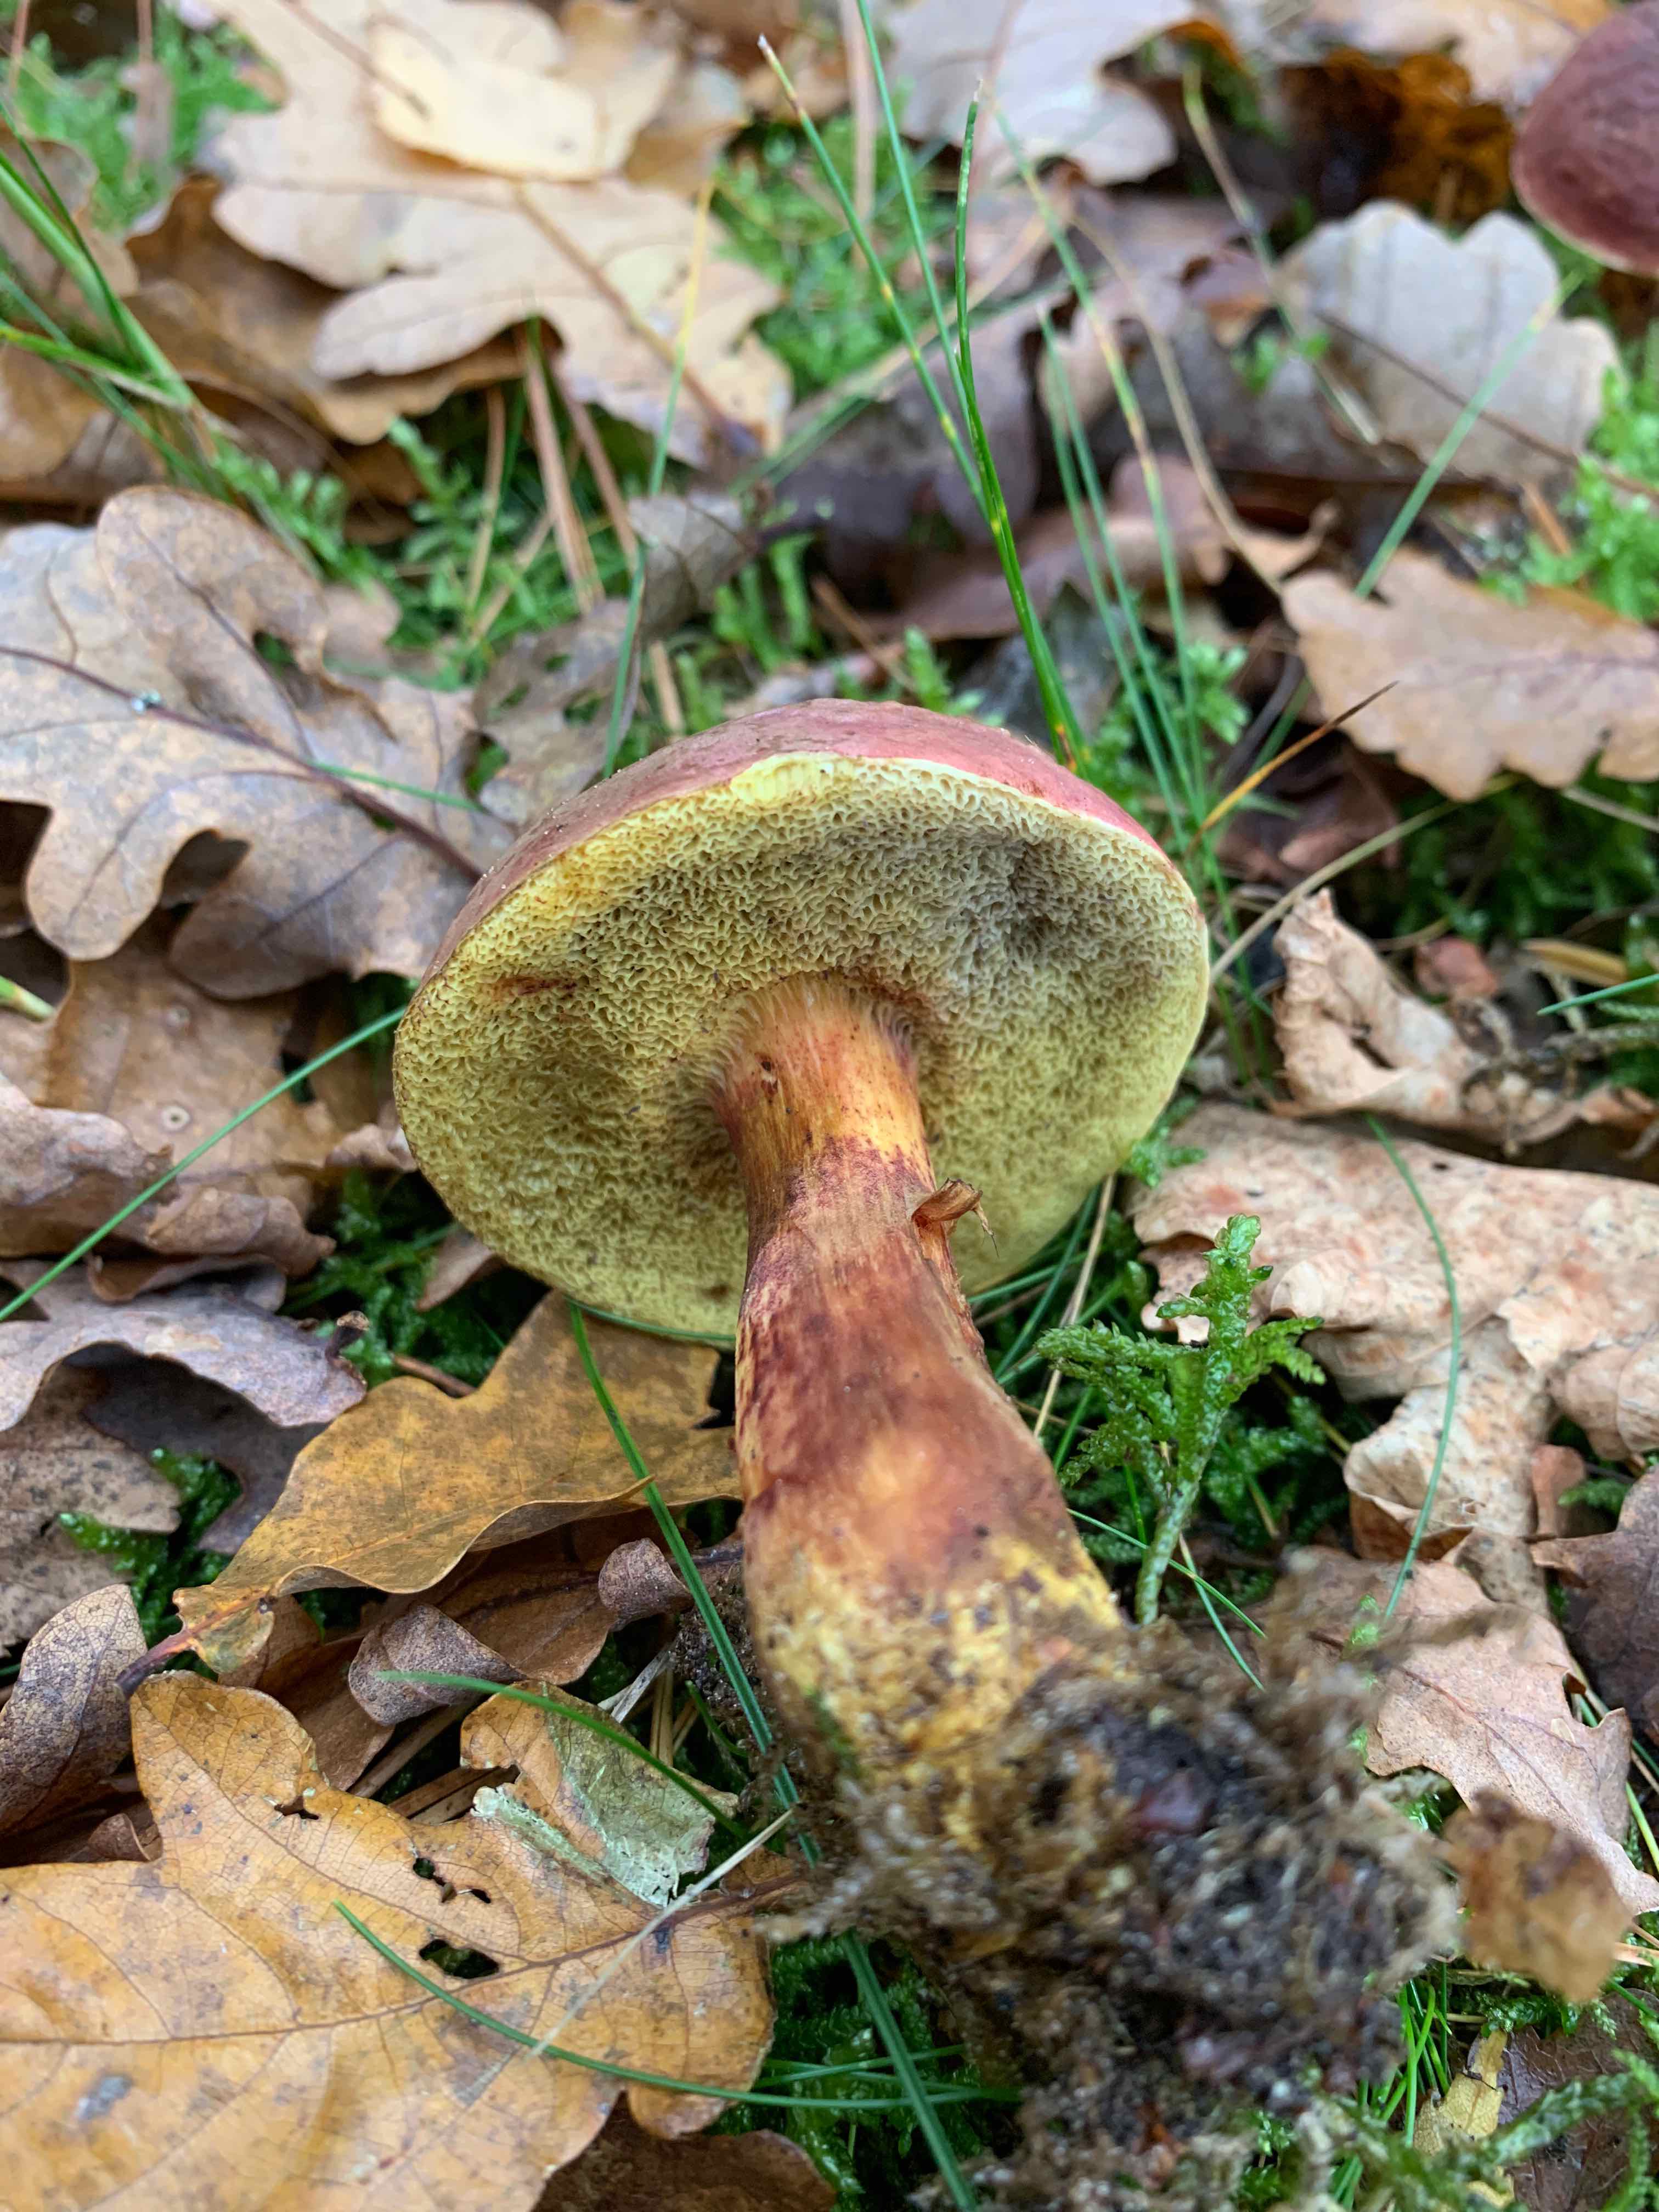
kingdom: Fungi
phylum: Basidiomycota
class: Agaricomycetes
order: Boletales
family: Boletaceae
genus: Xerocomellus
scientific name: Xerocomellus pruinatus
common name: dugget rørhat
